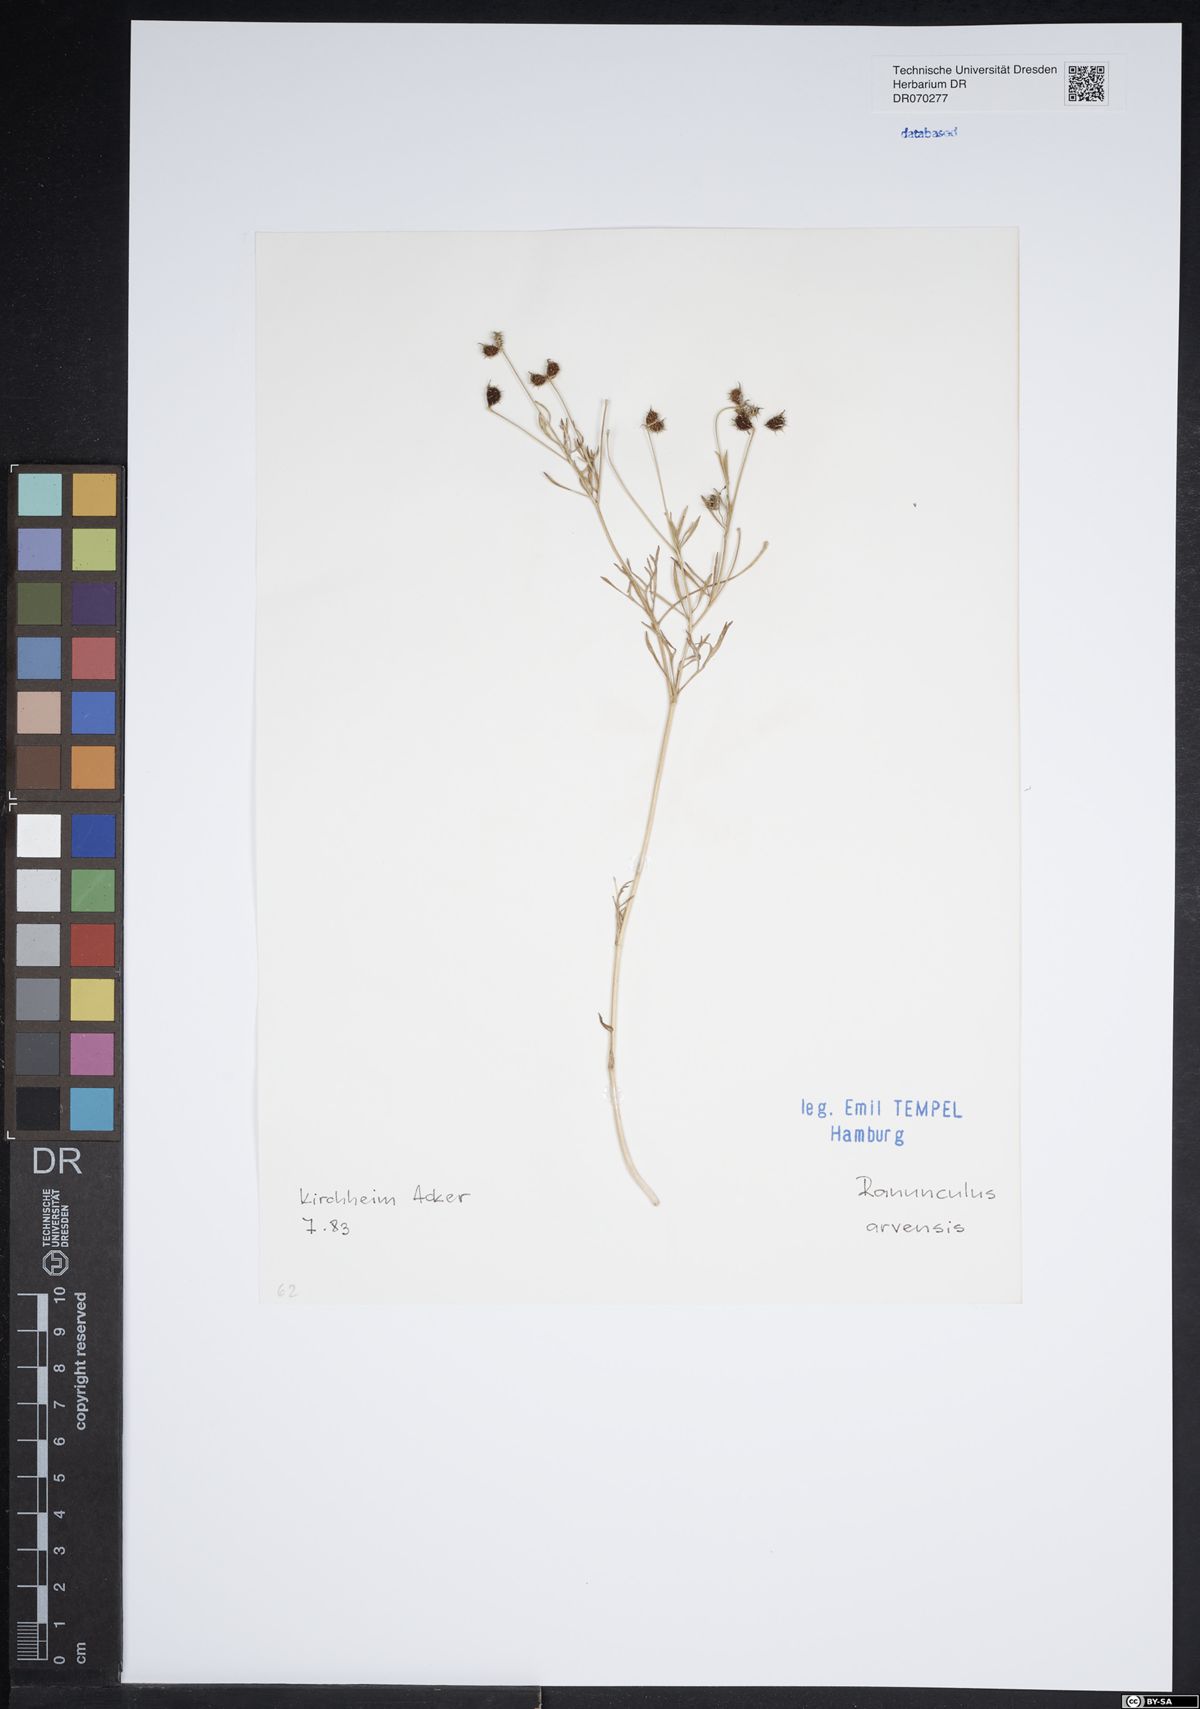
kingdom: Plantae
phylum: Tracheophyta
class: Magnoliopsida
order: Ranunculales
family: Ranunculaceae
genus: Ranunculus
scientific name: Ranunculus arvensis
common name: Corn buttercup
